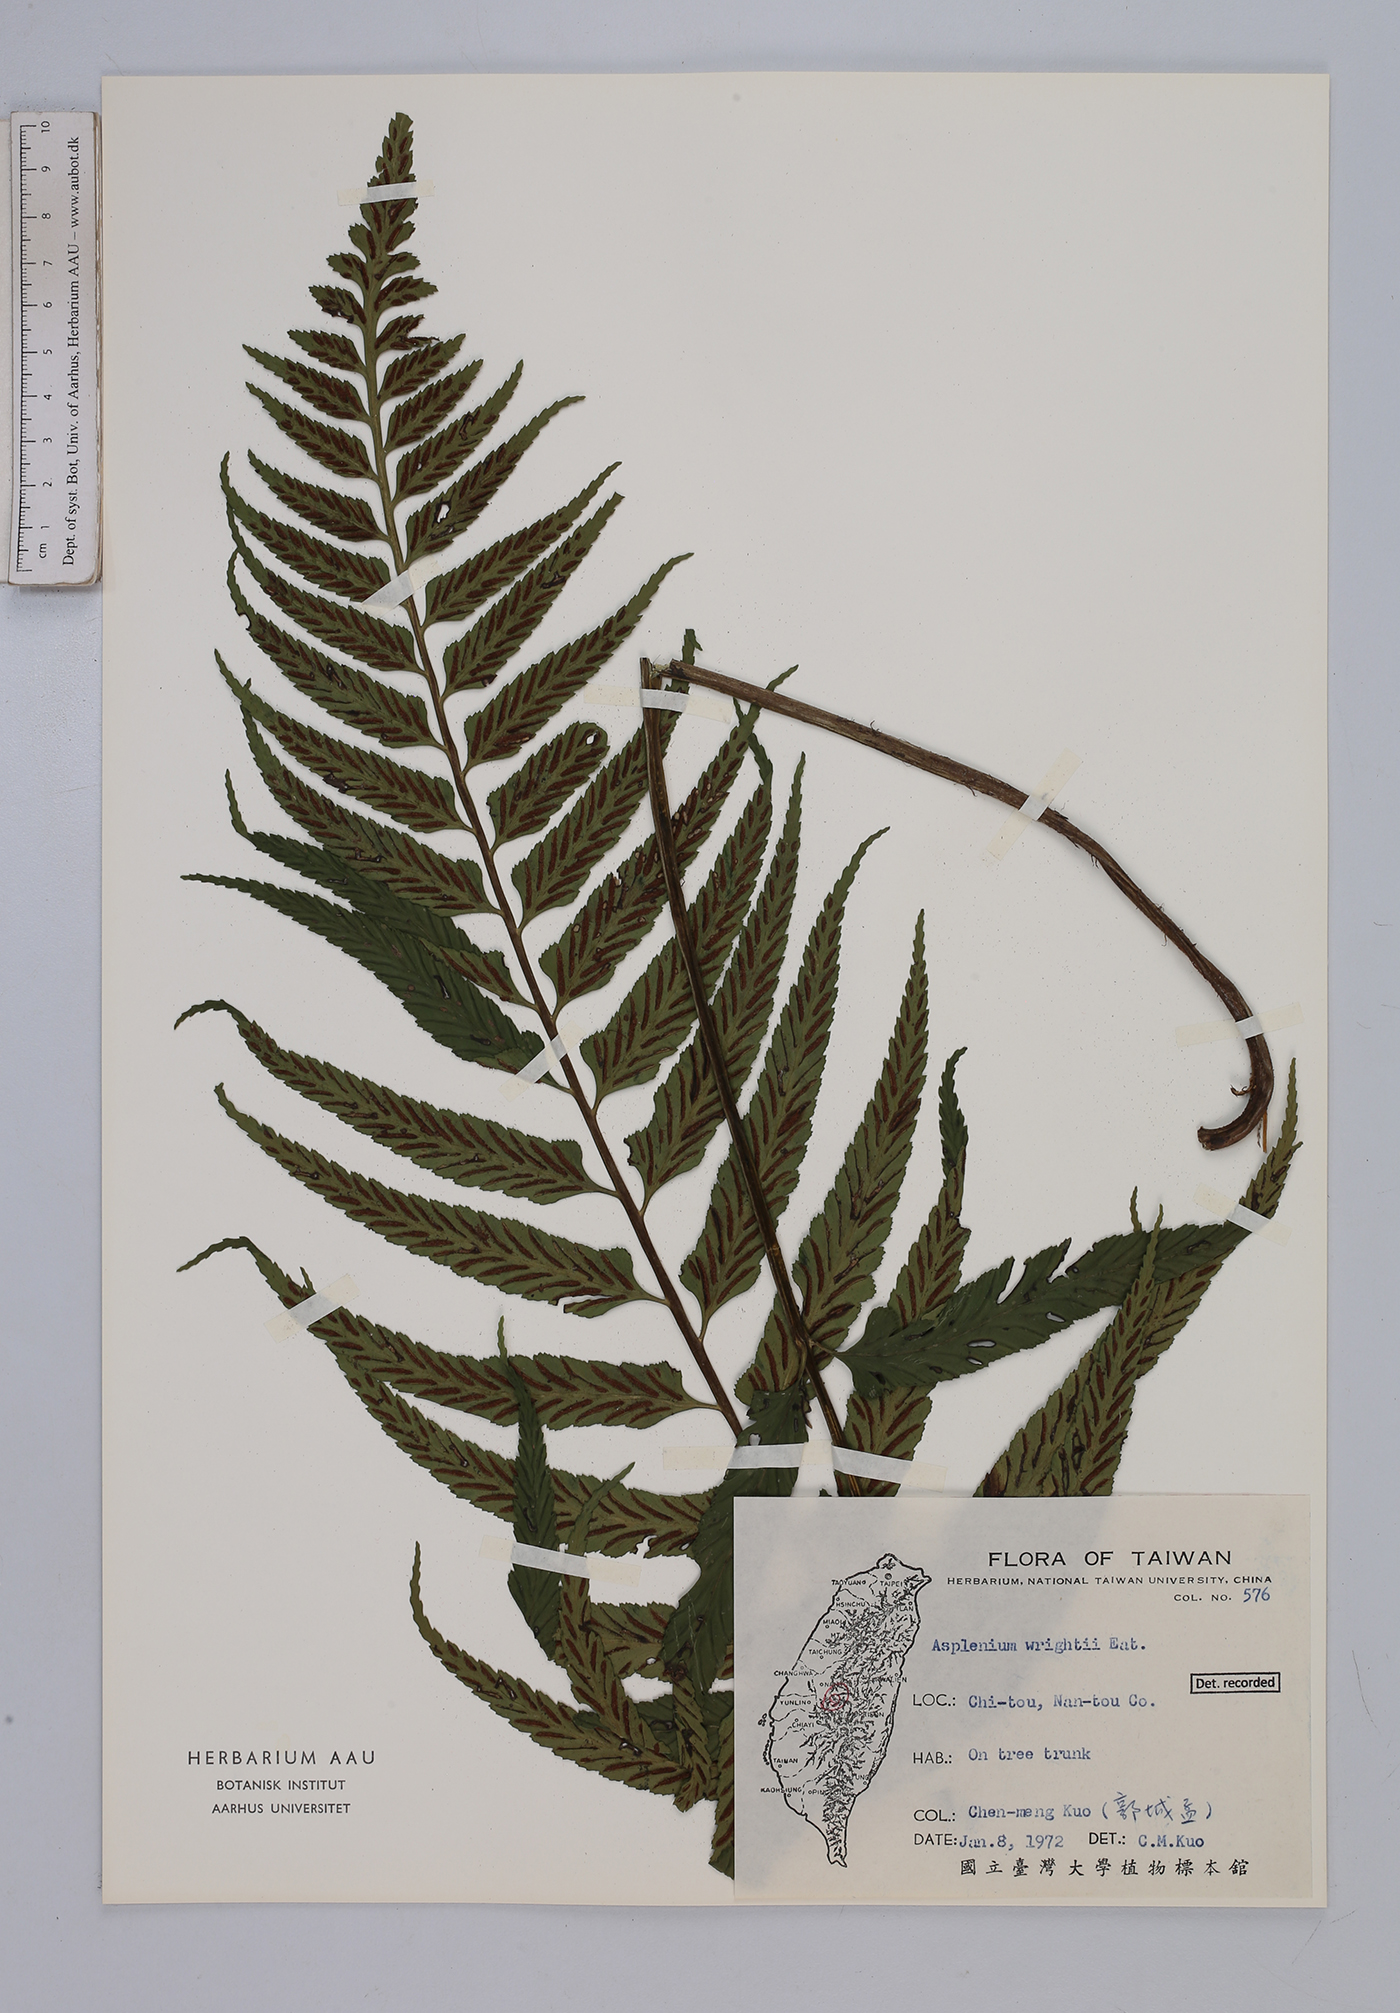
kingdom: Plantae
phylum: Tracheophyta
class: Polypodiopsida
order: Polypodiales
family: Aspleniaceae
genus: Asplenium
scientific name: Asplenium wrightii
